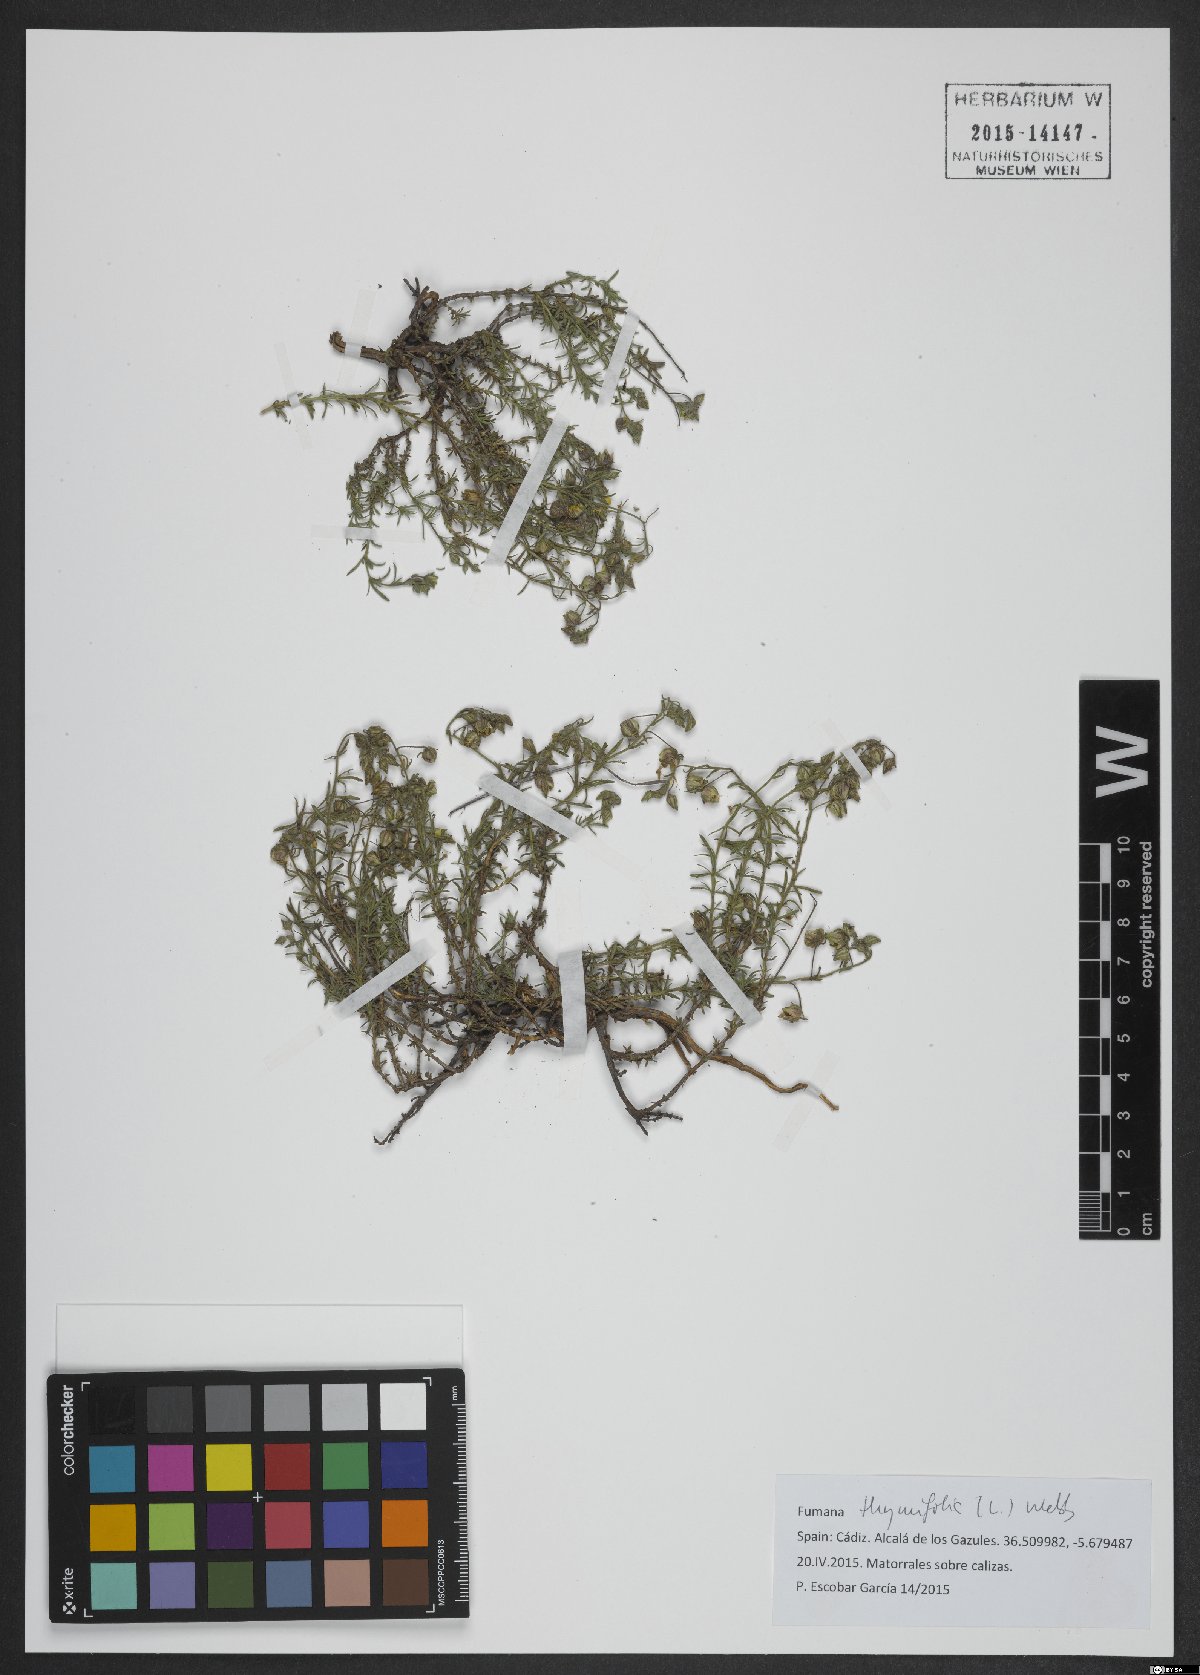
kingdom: Plantae
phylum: Tracheophyta
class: Magnoliopsida
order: Malvales
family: Cistaceae
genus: Fumana
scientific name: Fumana thymifolia
